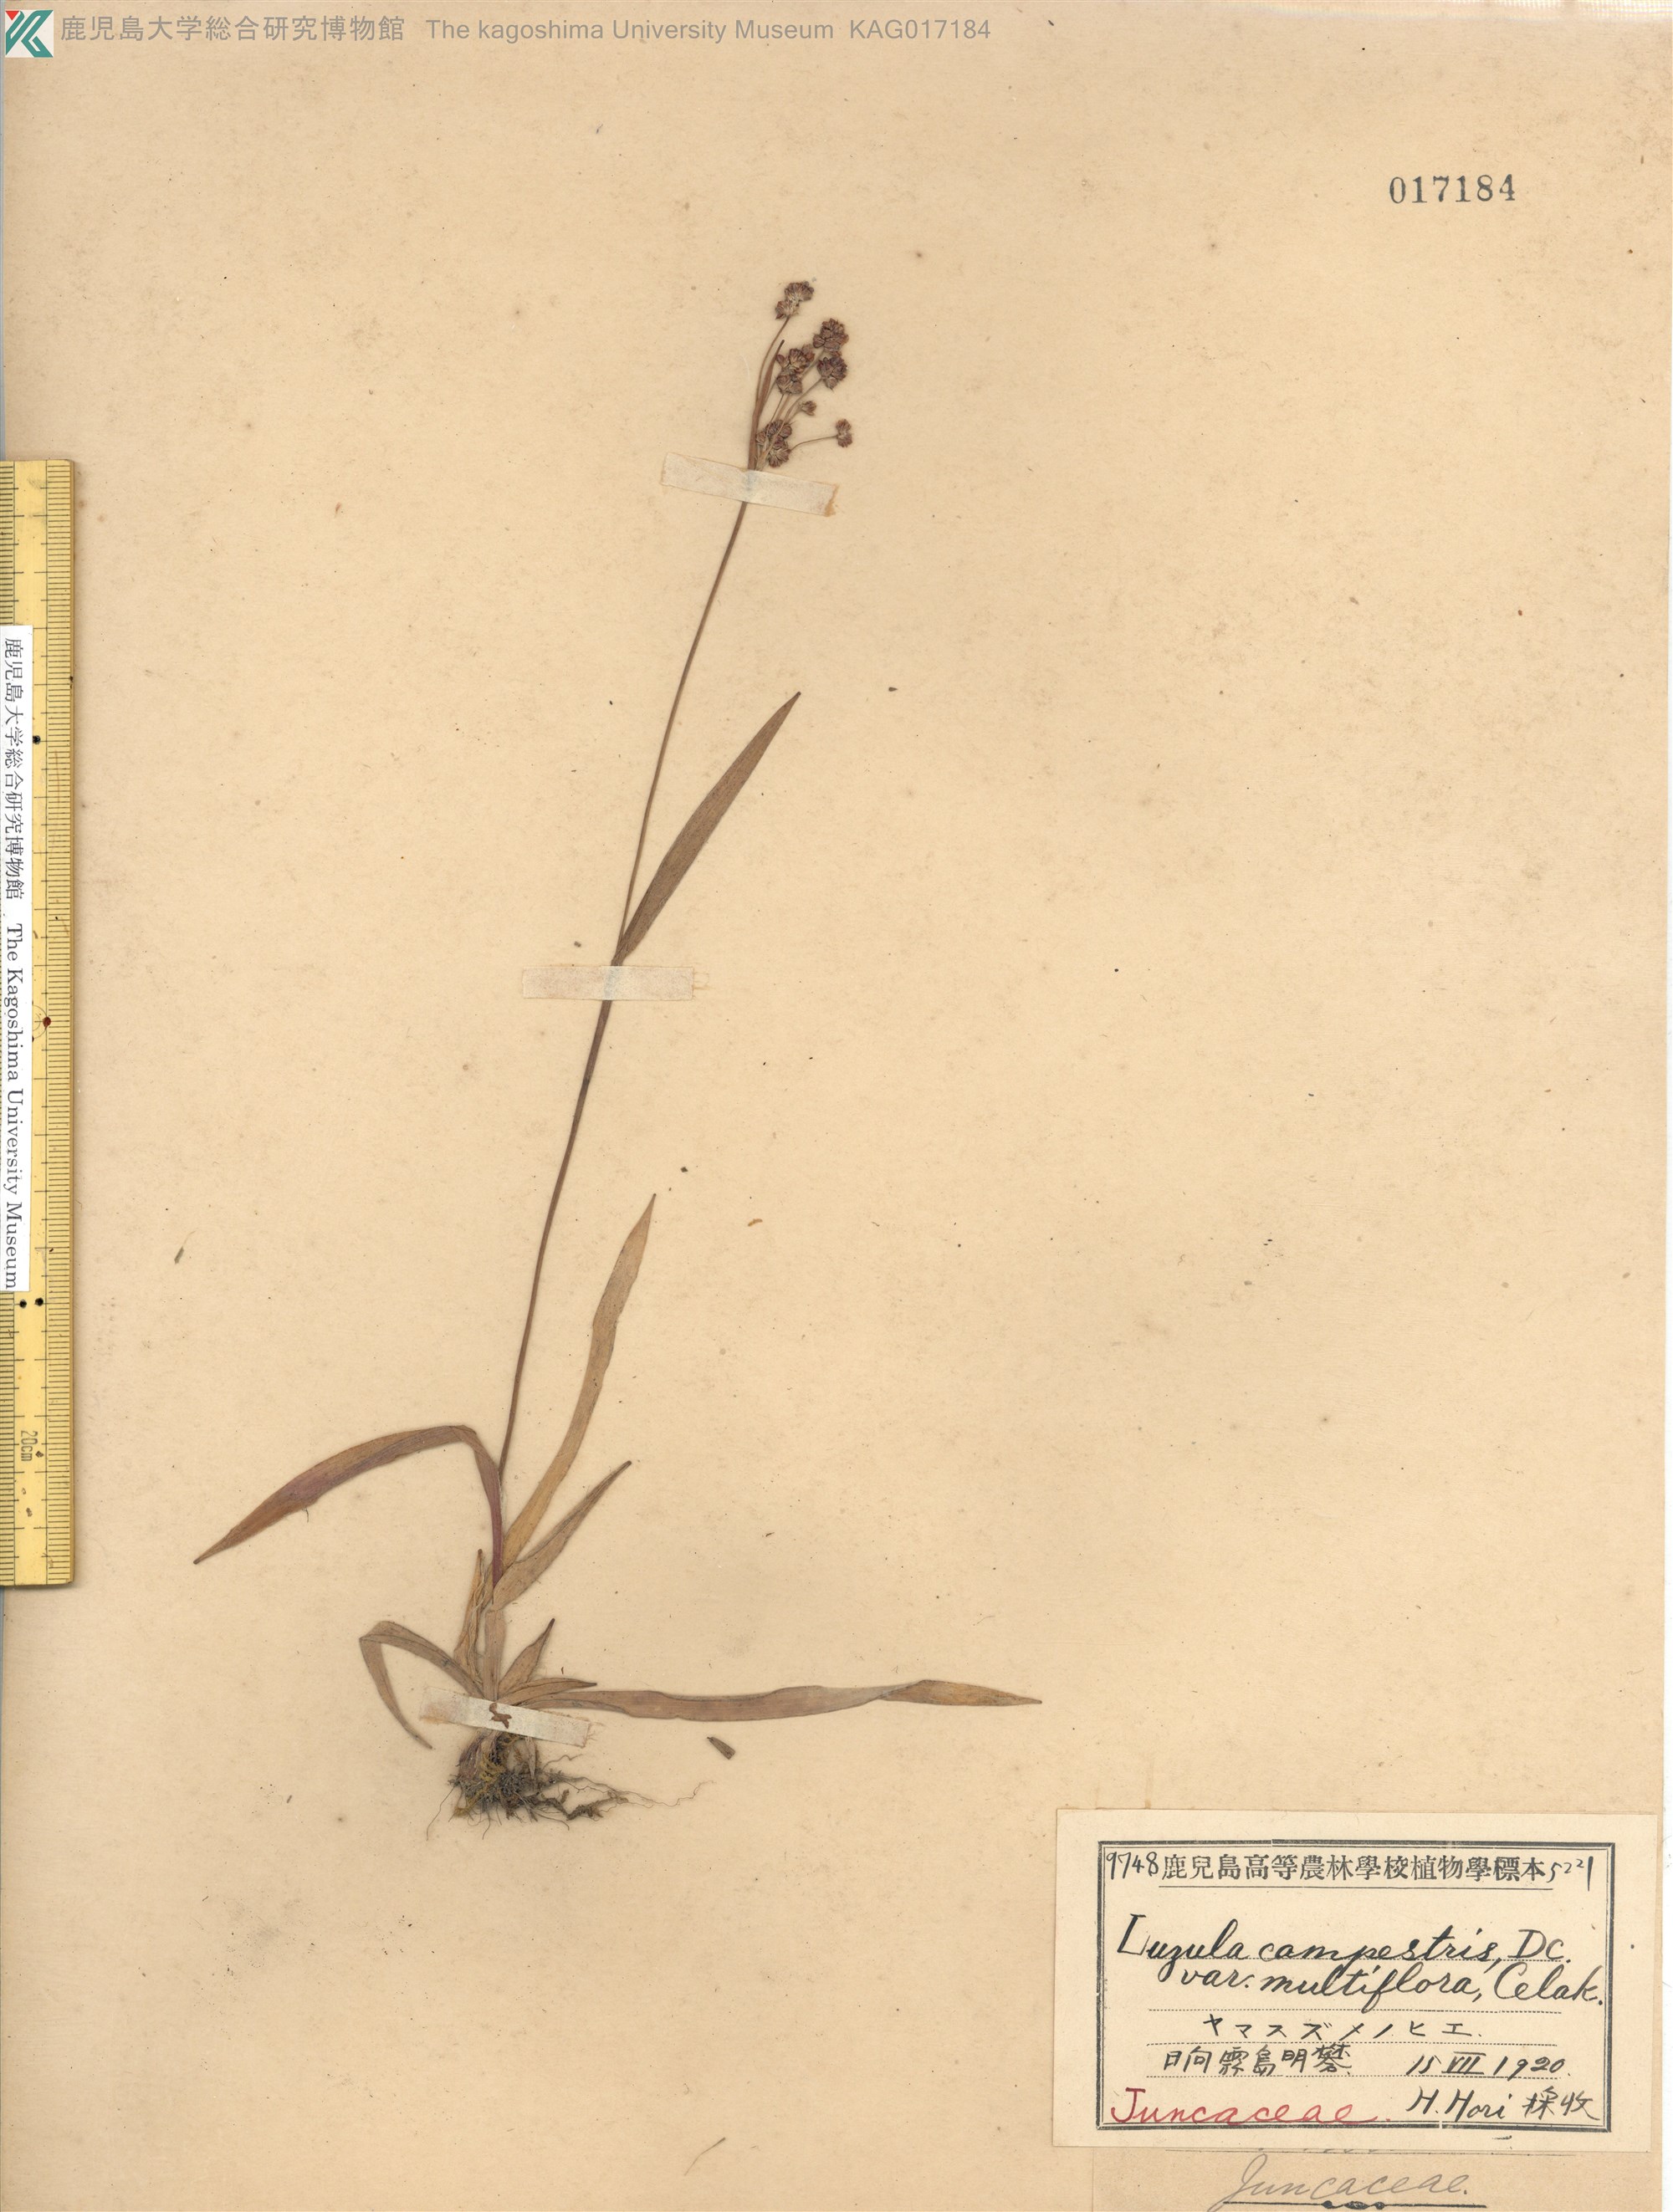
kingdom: Plantae
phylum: Tracheophyta
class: Liliopsida
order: Poales
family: Juncaceae
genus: Luzula
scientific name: Luzula multiflora
